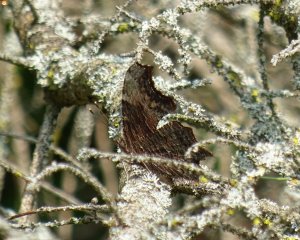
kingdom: Animalia
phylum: Arthropoda
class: Insecta
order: Lepidoptera
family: Nymphalidae
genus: Polygonia
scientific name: Polygonia progne
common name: Gray Comma
